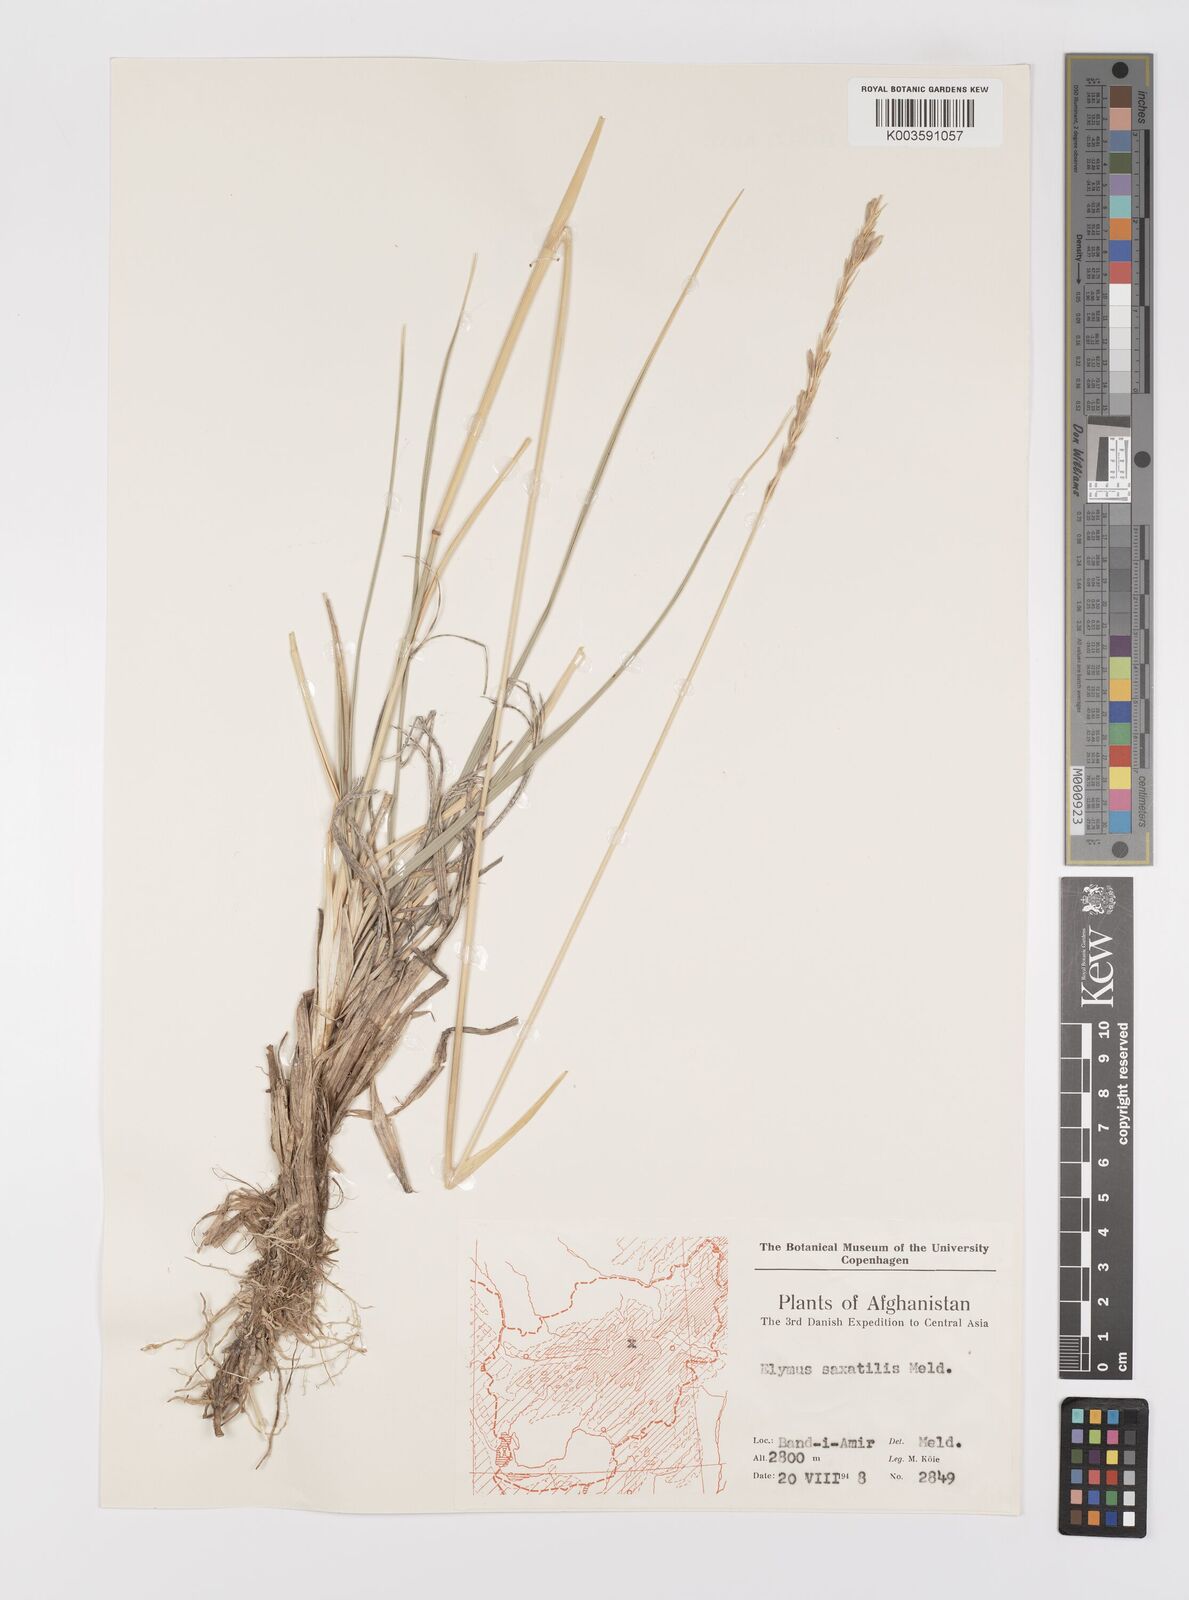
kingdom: Plantae
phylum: Tracheophyta
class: Liliopsida
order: Poales
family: Poaceae
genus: Leymus
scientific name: Leymus
